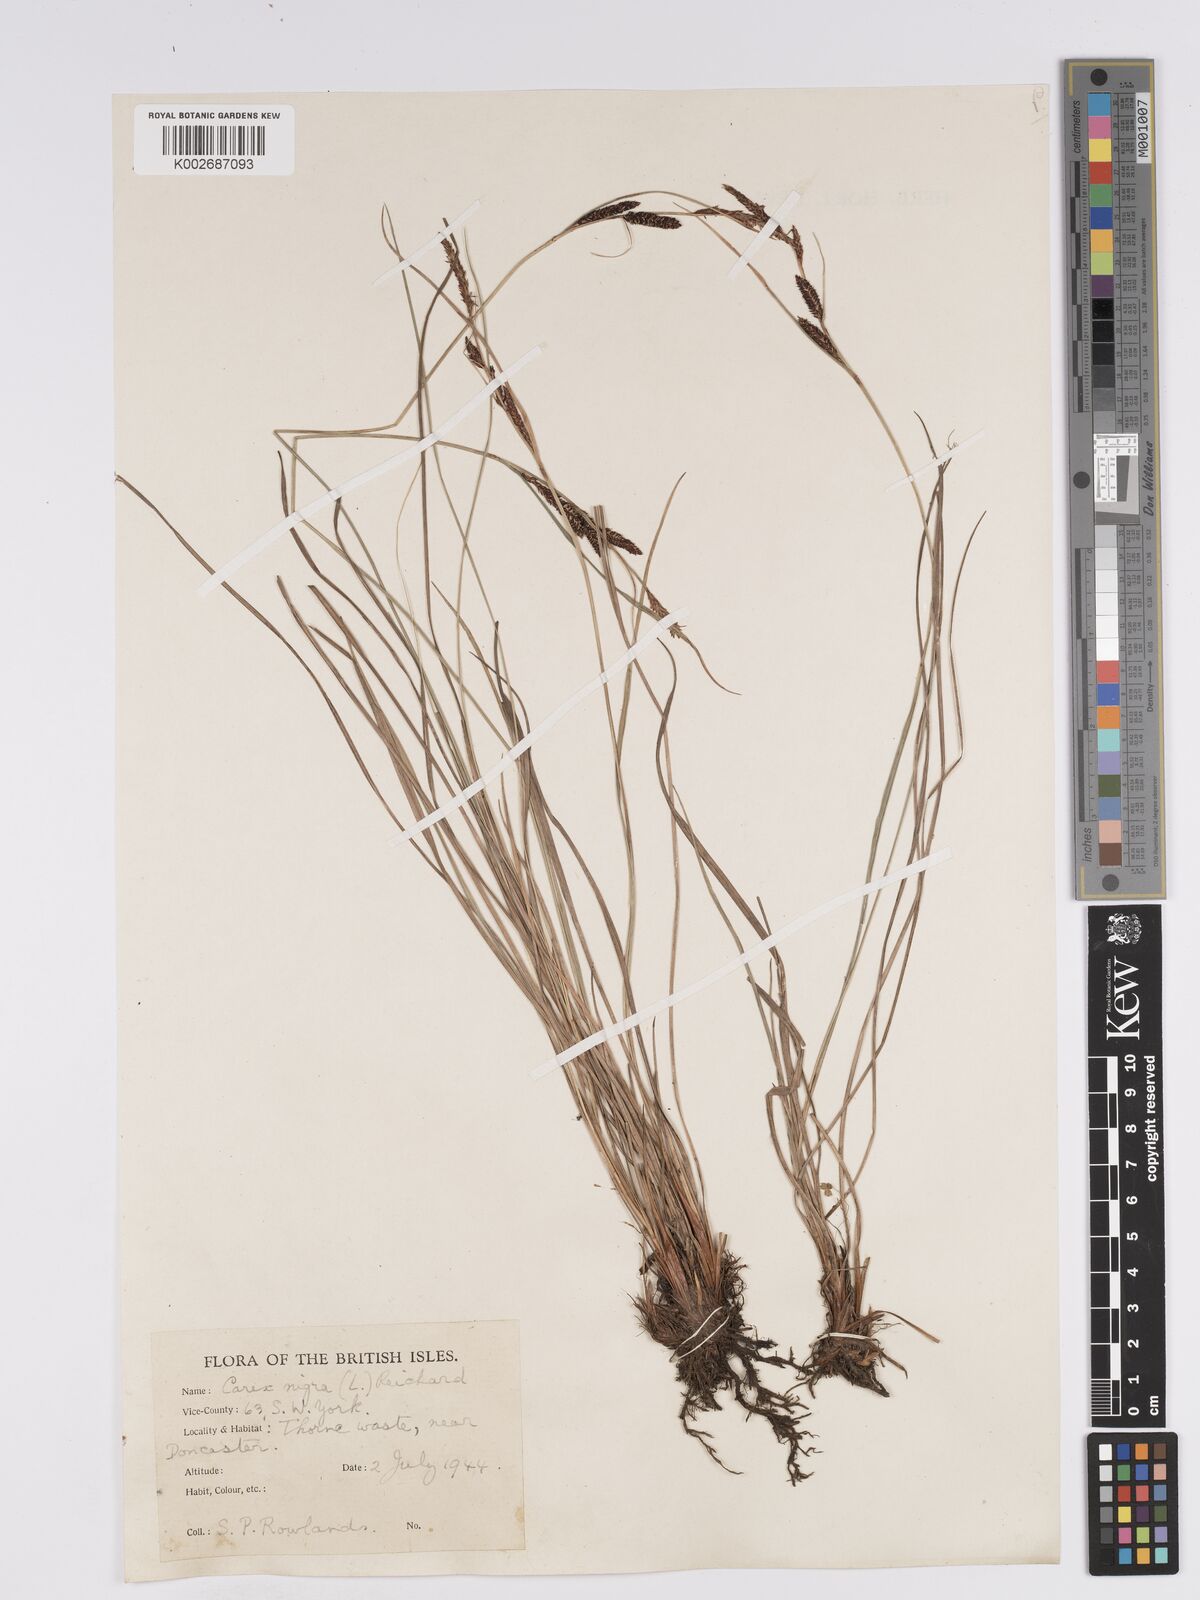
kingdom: Plantae
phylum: Tracheophyta
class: Liliopsida
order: Poales
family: Cyperaceae
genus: Carex
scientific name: Carex nigra
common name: Common sedge
